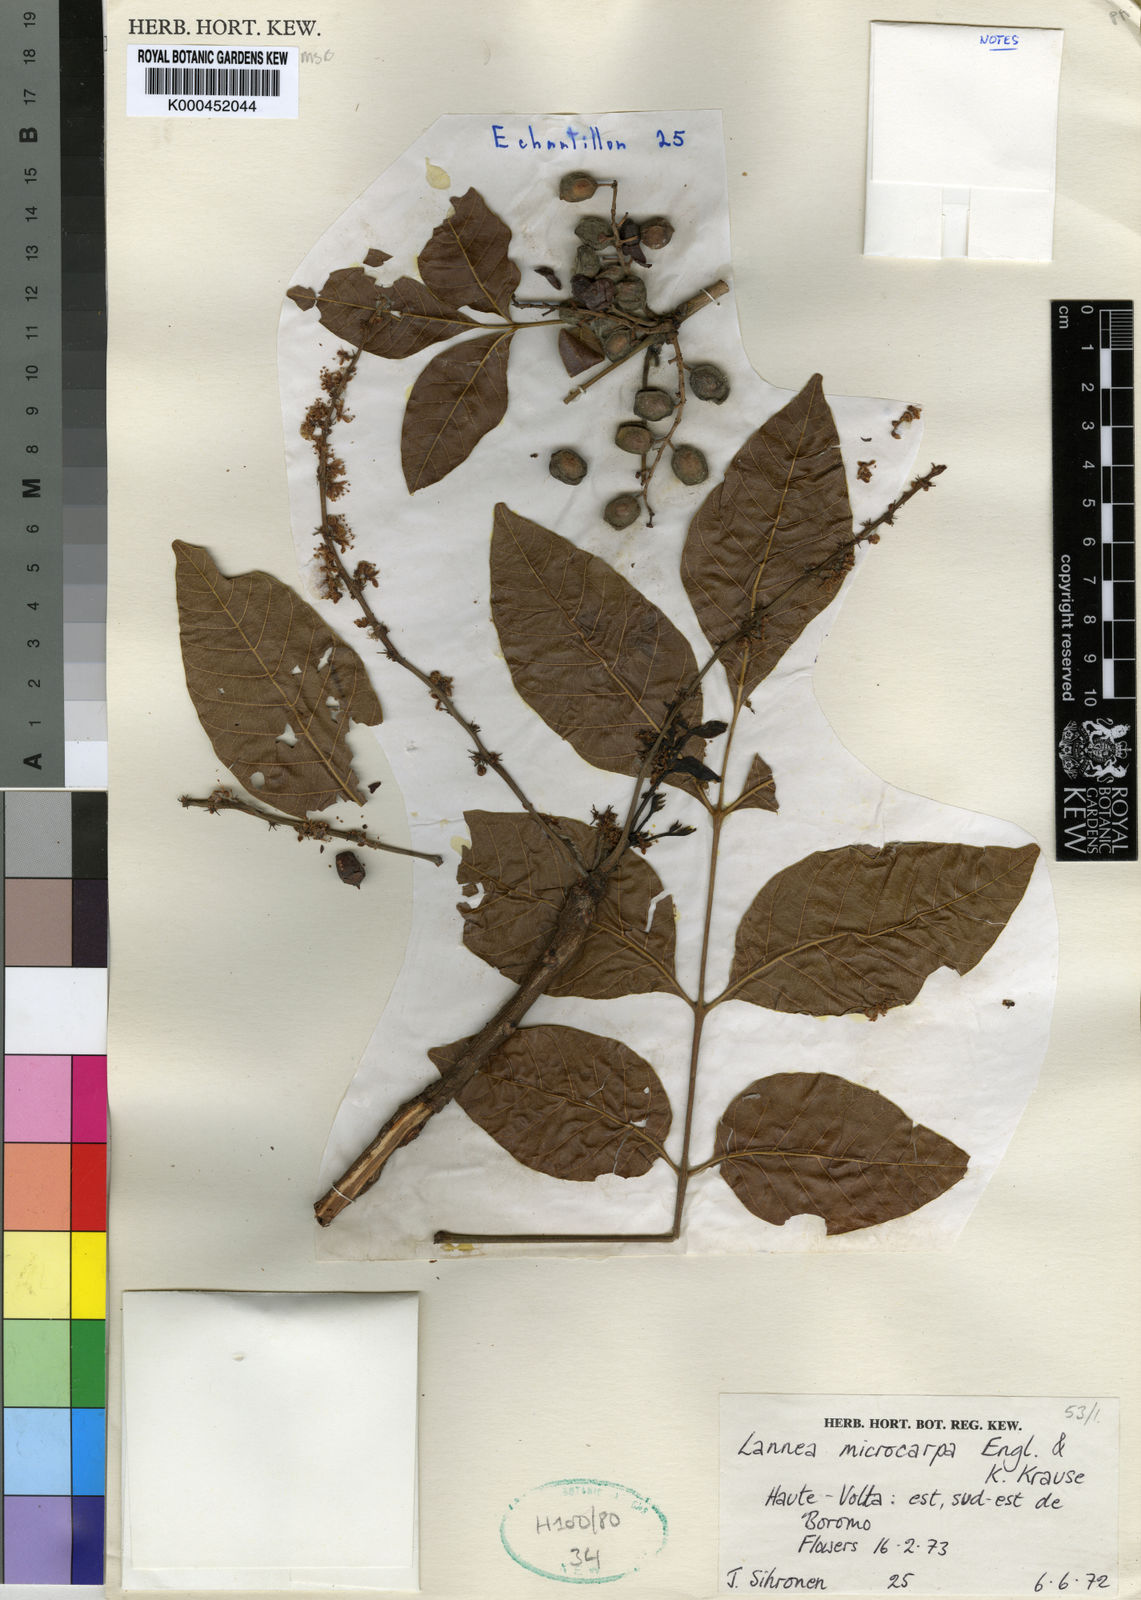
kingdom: Plantae
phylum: Tracheophyta
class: Magnoliopsida
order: Sapindales
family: Anacardiaceae
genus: Lannea
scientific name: Lannea microcarpa
